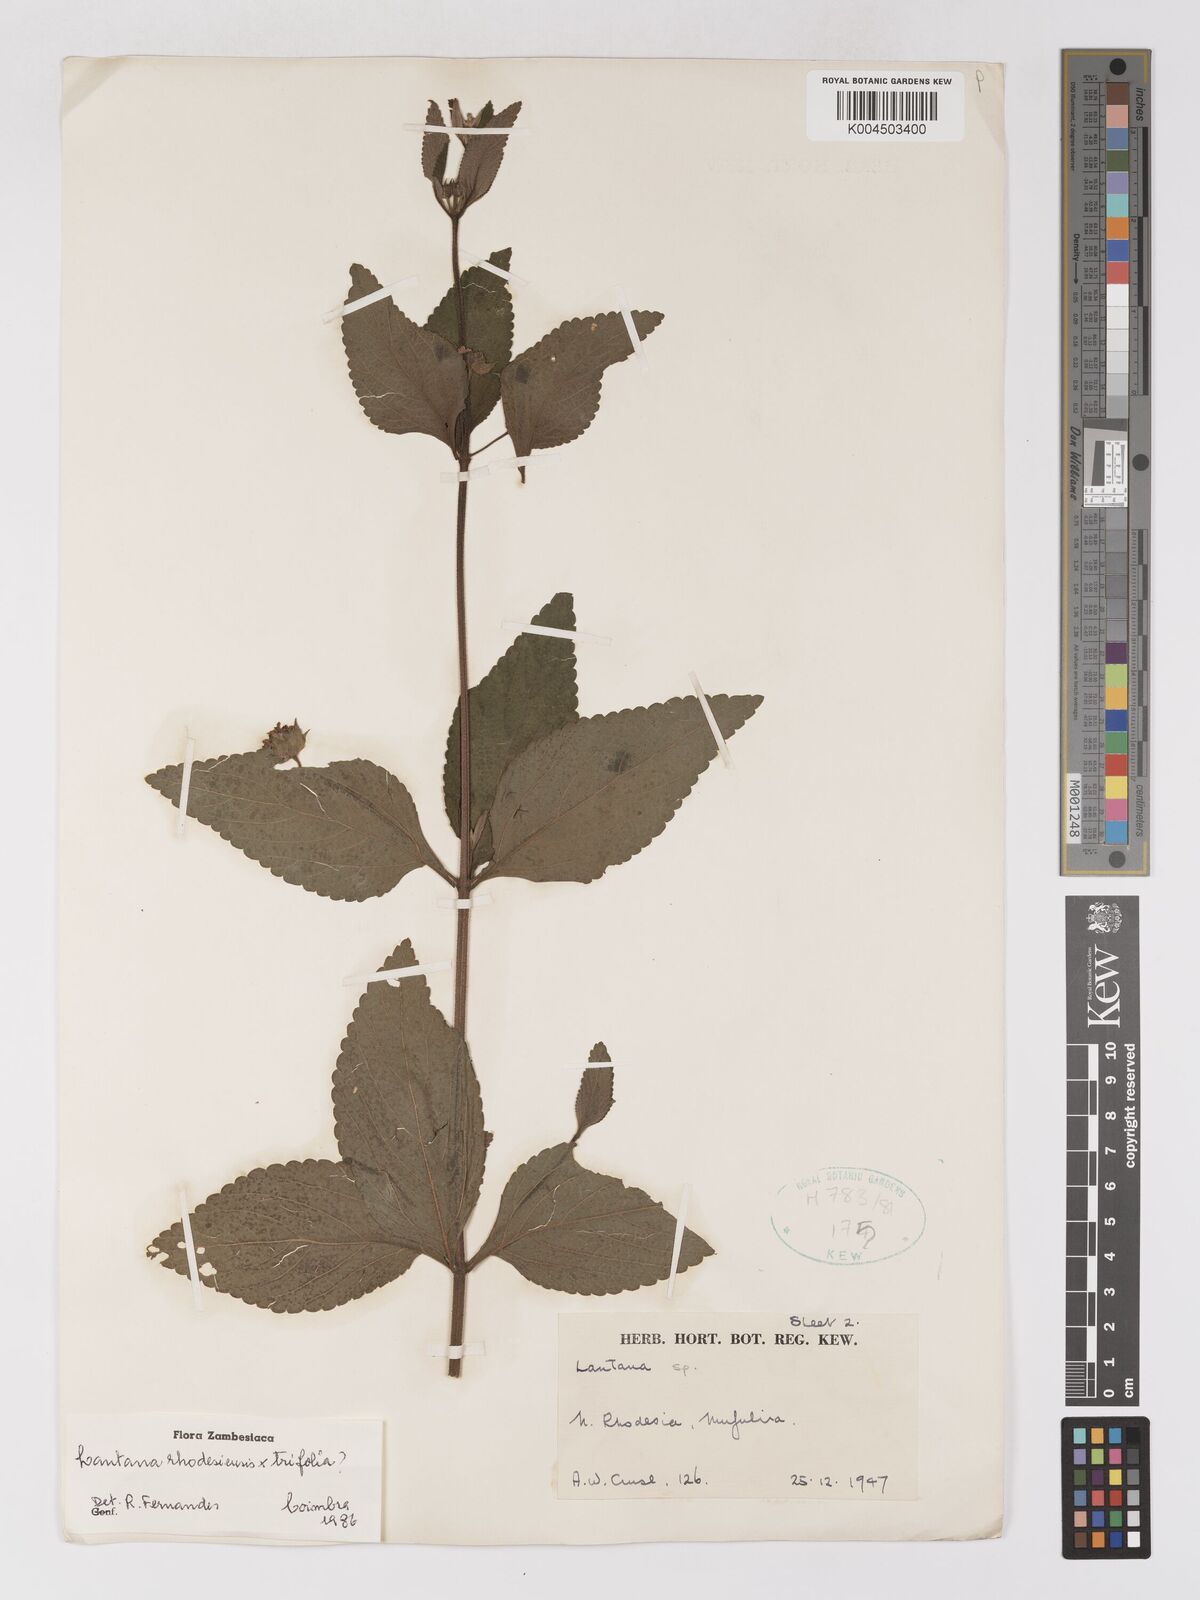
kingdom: Plantae
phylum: Tracheophyta
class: Magnoliopsida
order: Lamiales
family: Verbenaceae
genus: Lantana
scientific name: Lantana ukambensis
